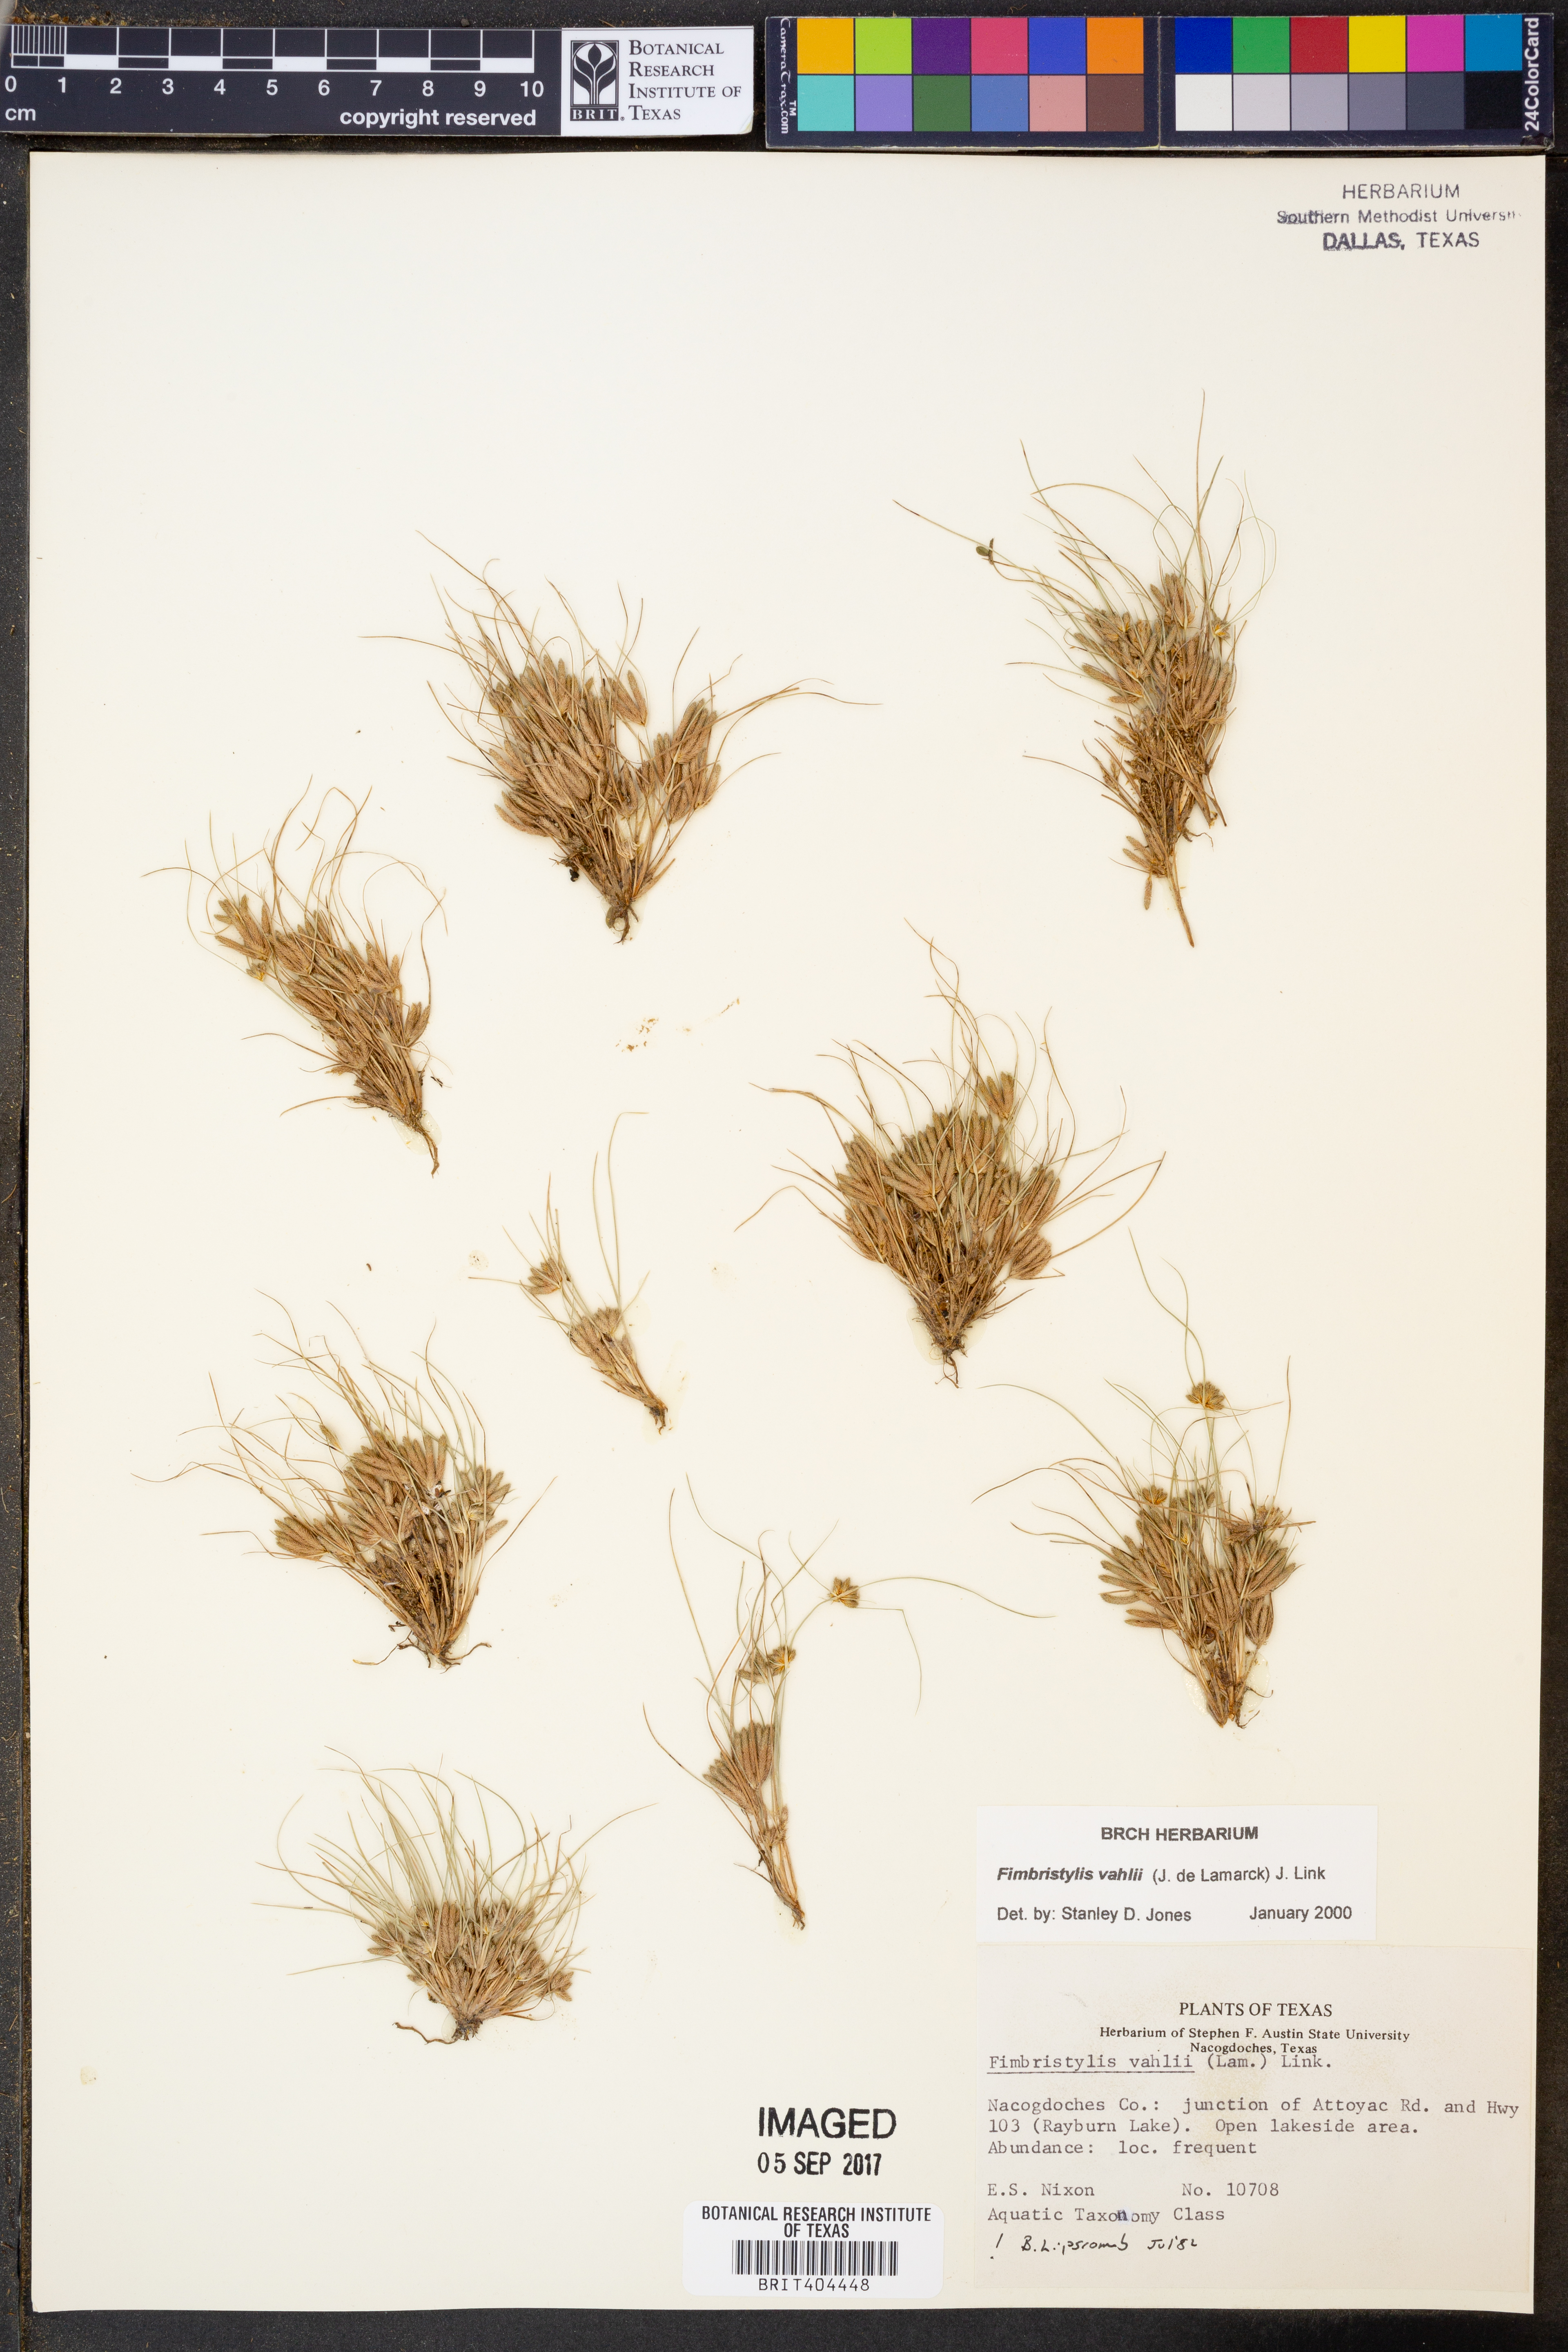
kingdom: Plantae
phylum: Tracheophyta
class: Liliopsida
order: Poales
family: Cyperaceae
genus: Fimbristylis
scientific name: Fimbristylis vahlii
